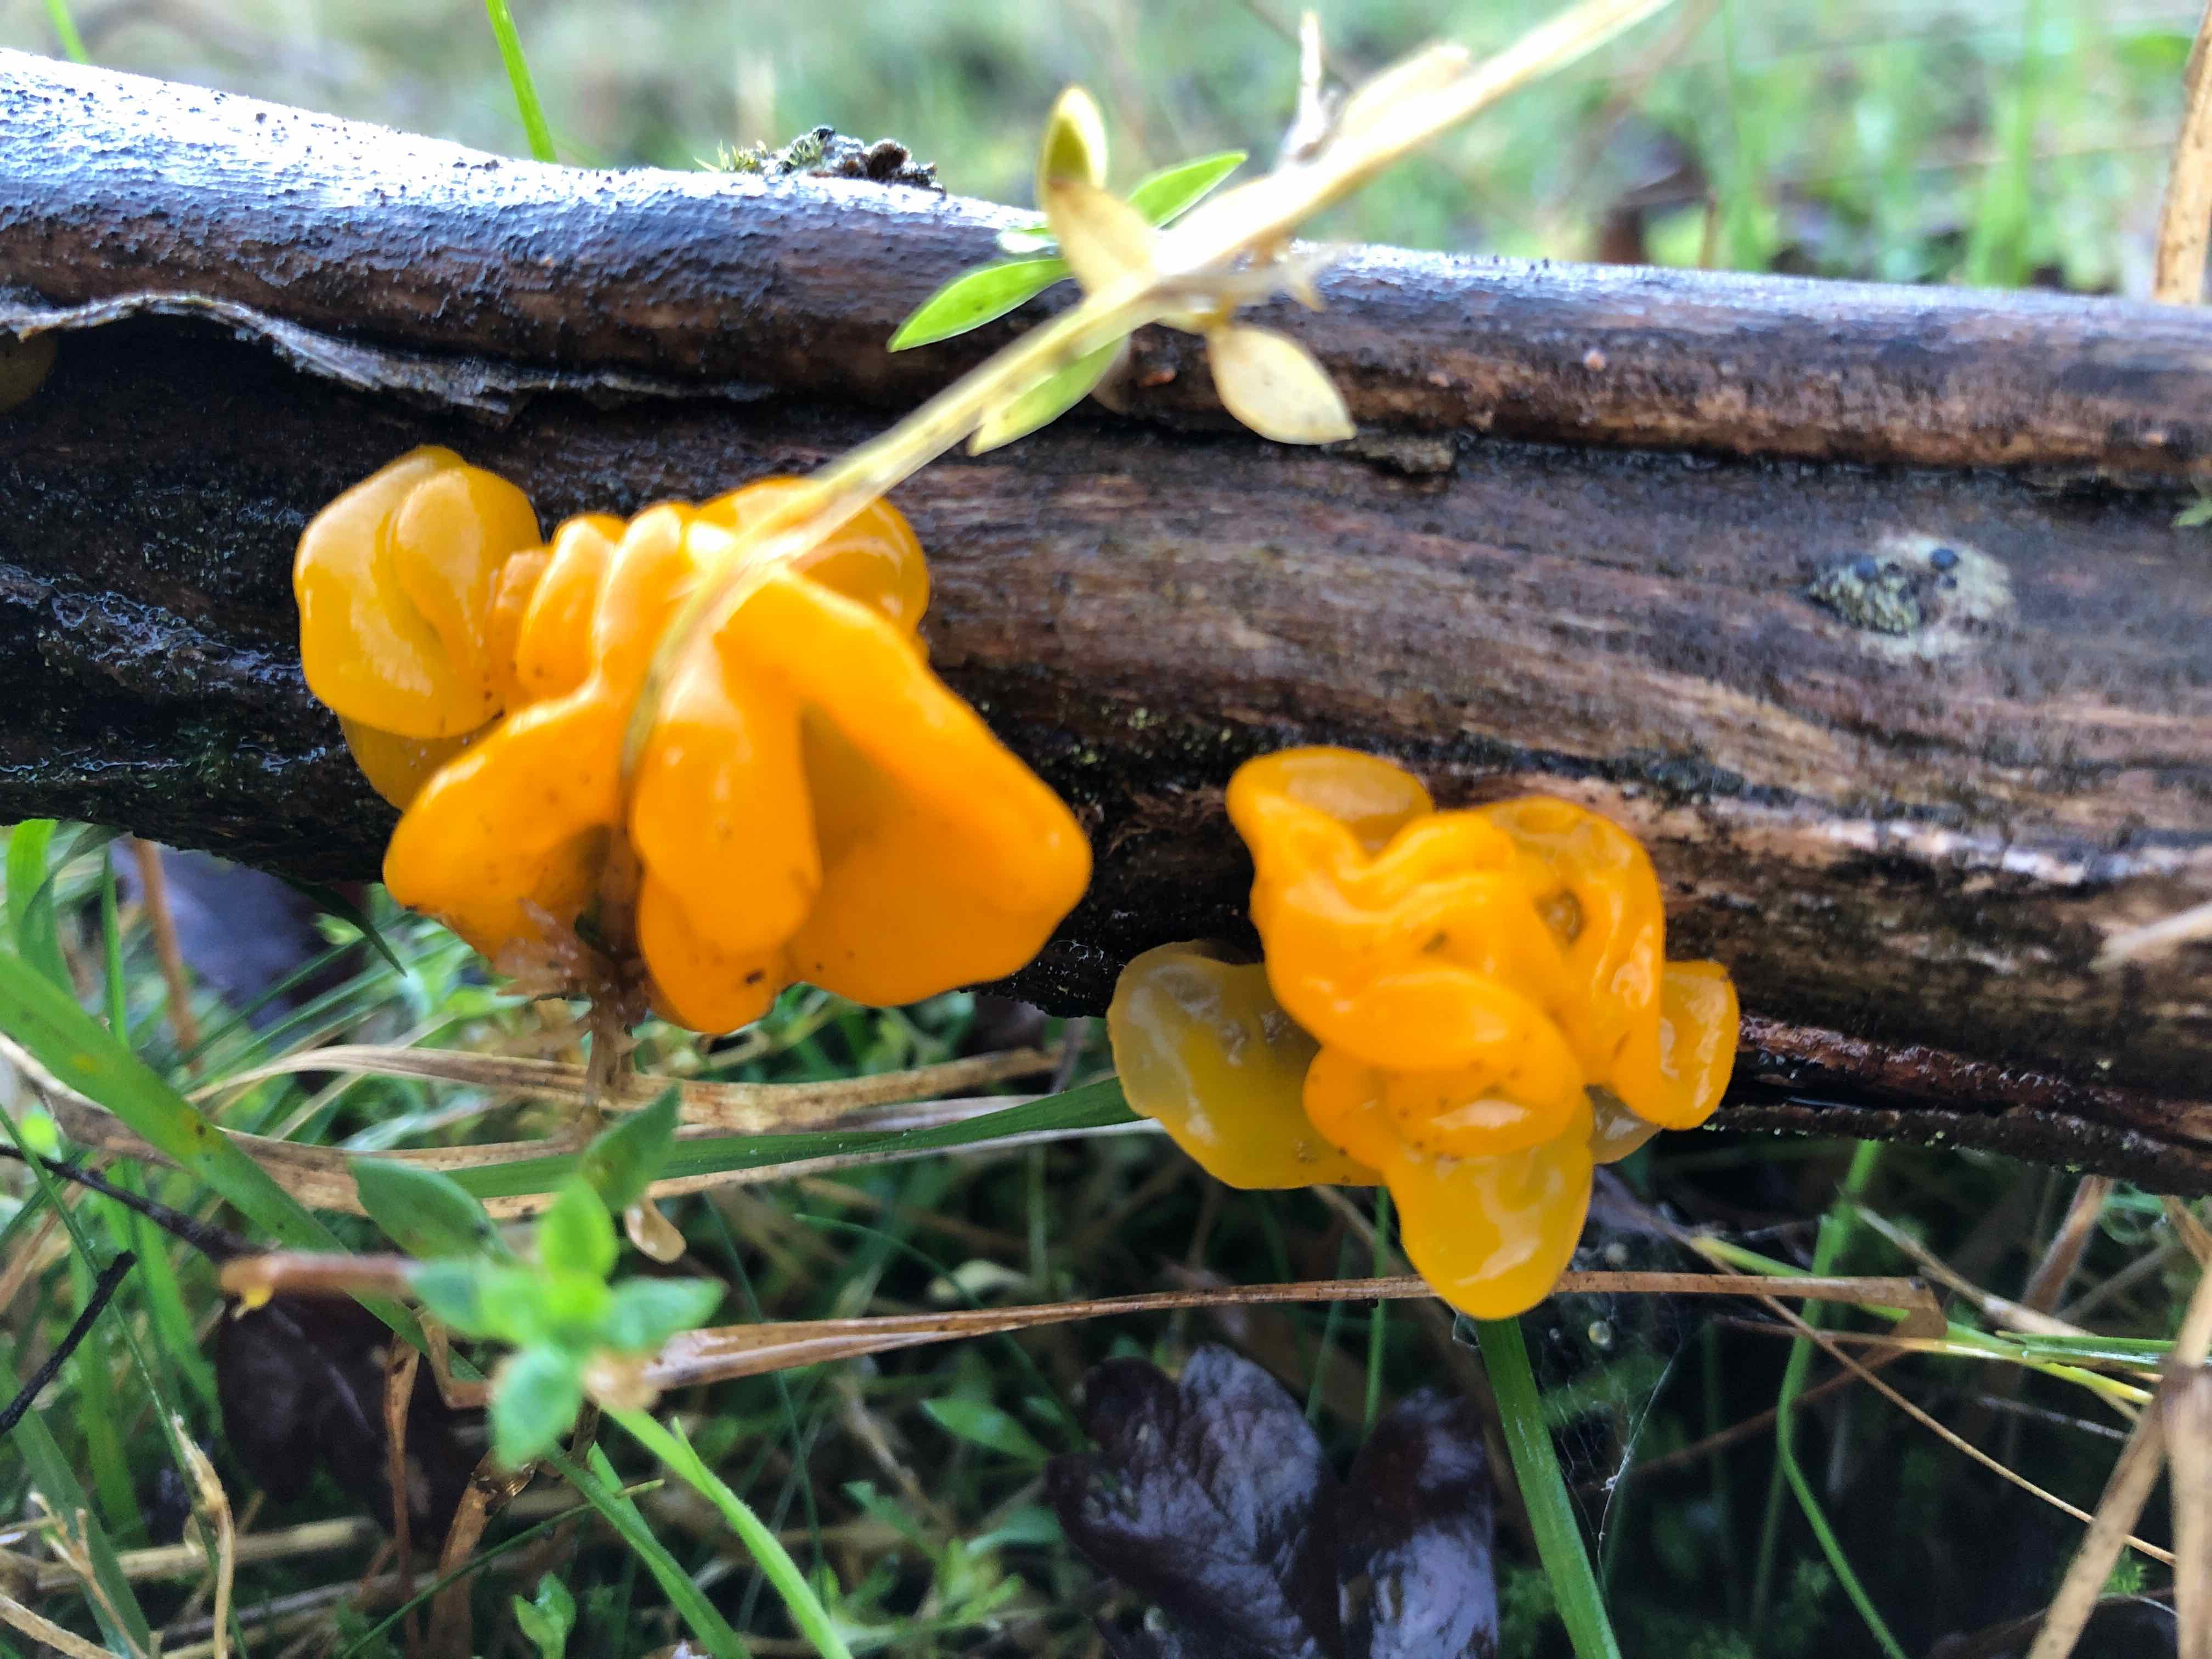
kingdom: Fungi
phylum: Basidiomycota
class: Tremellomycetes
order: Tremellales
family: Tremellaceae
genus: Tremella
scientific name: Tremella mesenterica
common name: gul bævresvamp
